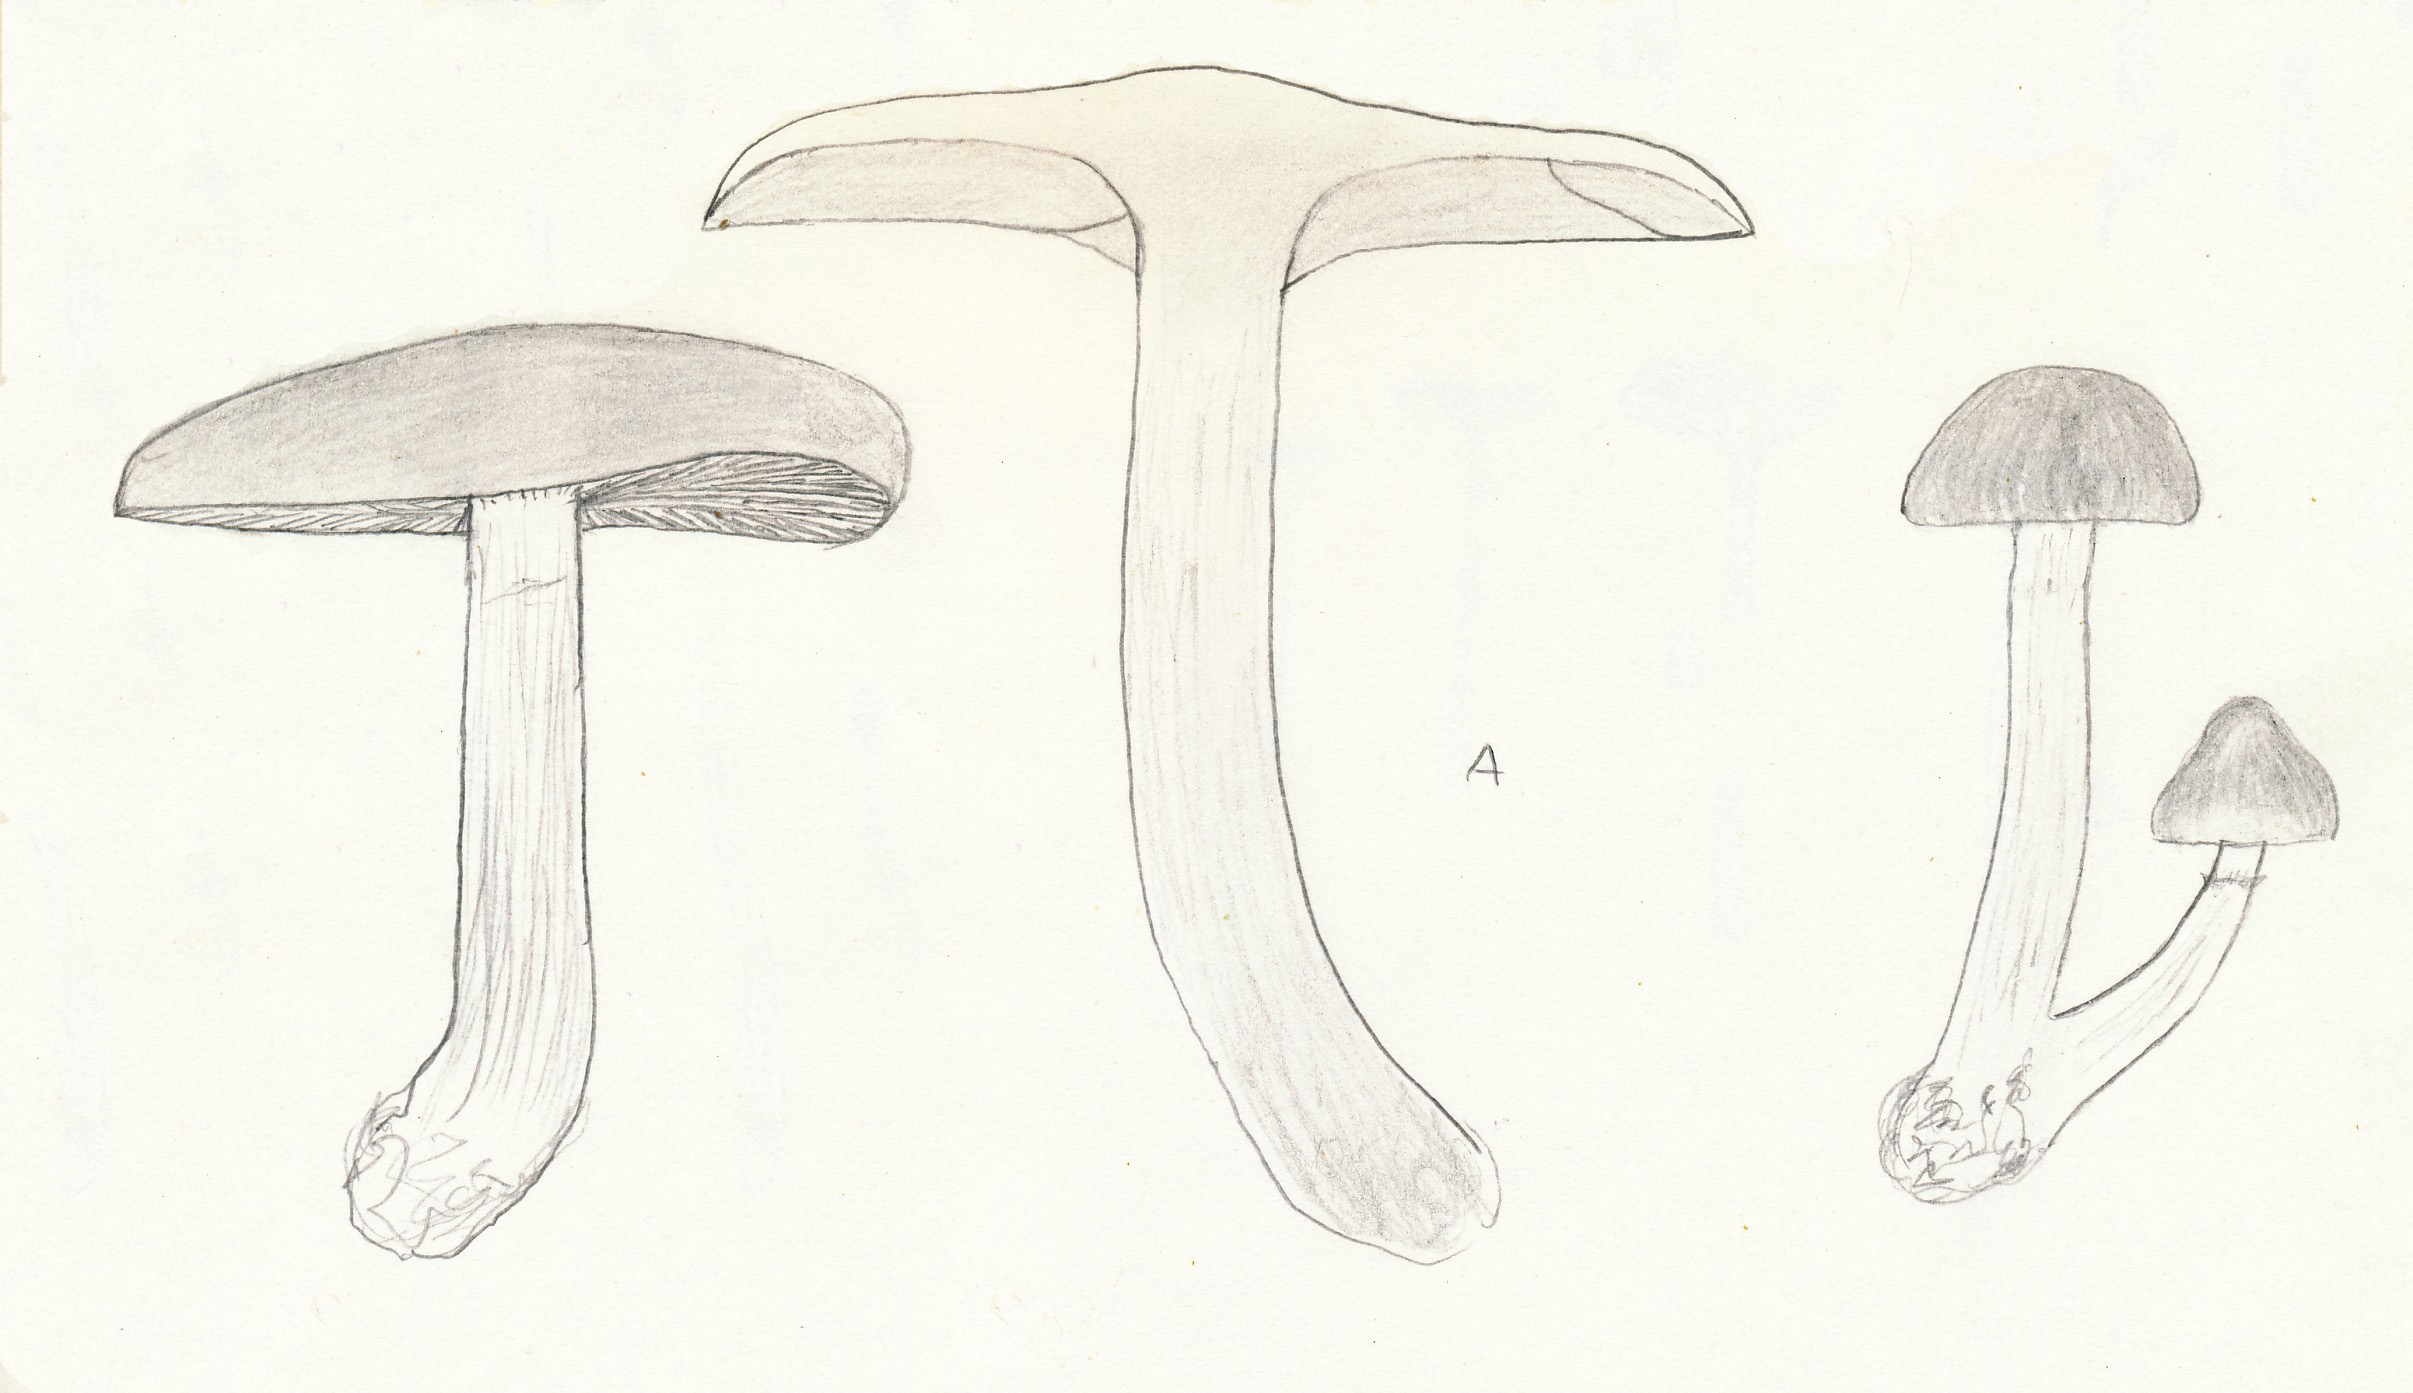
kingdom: Fungi
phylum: Basidiomycota
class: Agaricomycetes
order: Agaricales
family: Hymenogastraceae
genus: Gymnopilus
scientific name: Gymnopilus penetrans
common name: plettet flammehat
